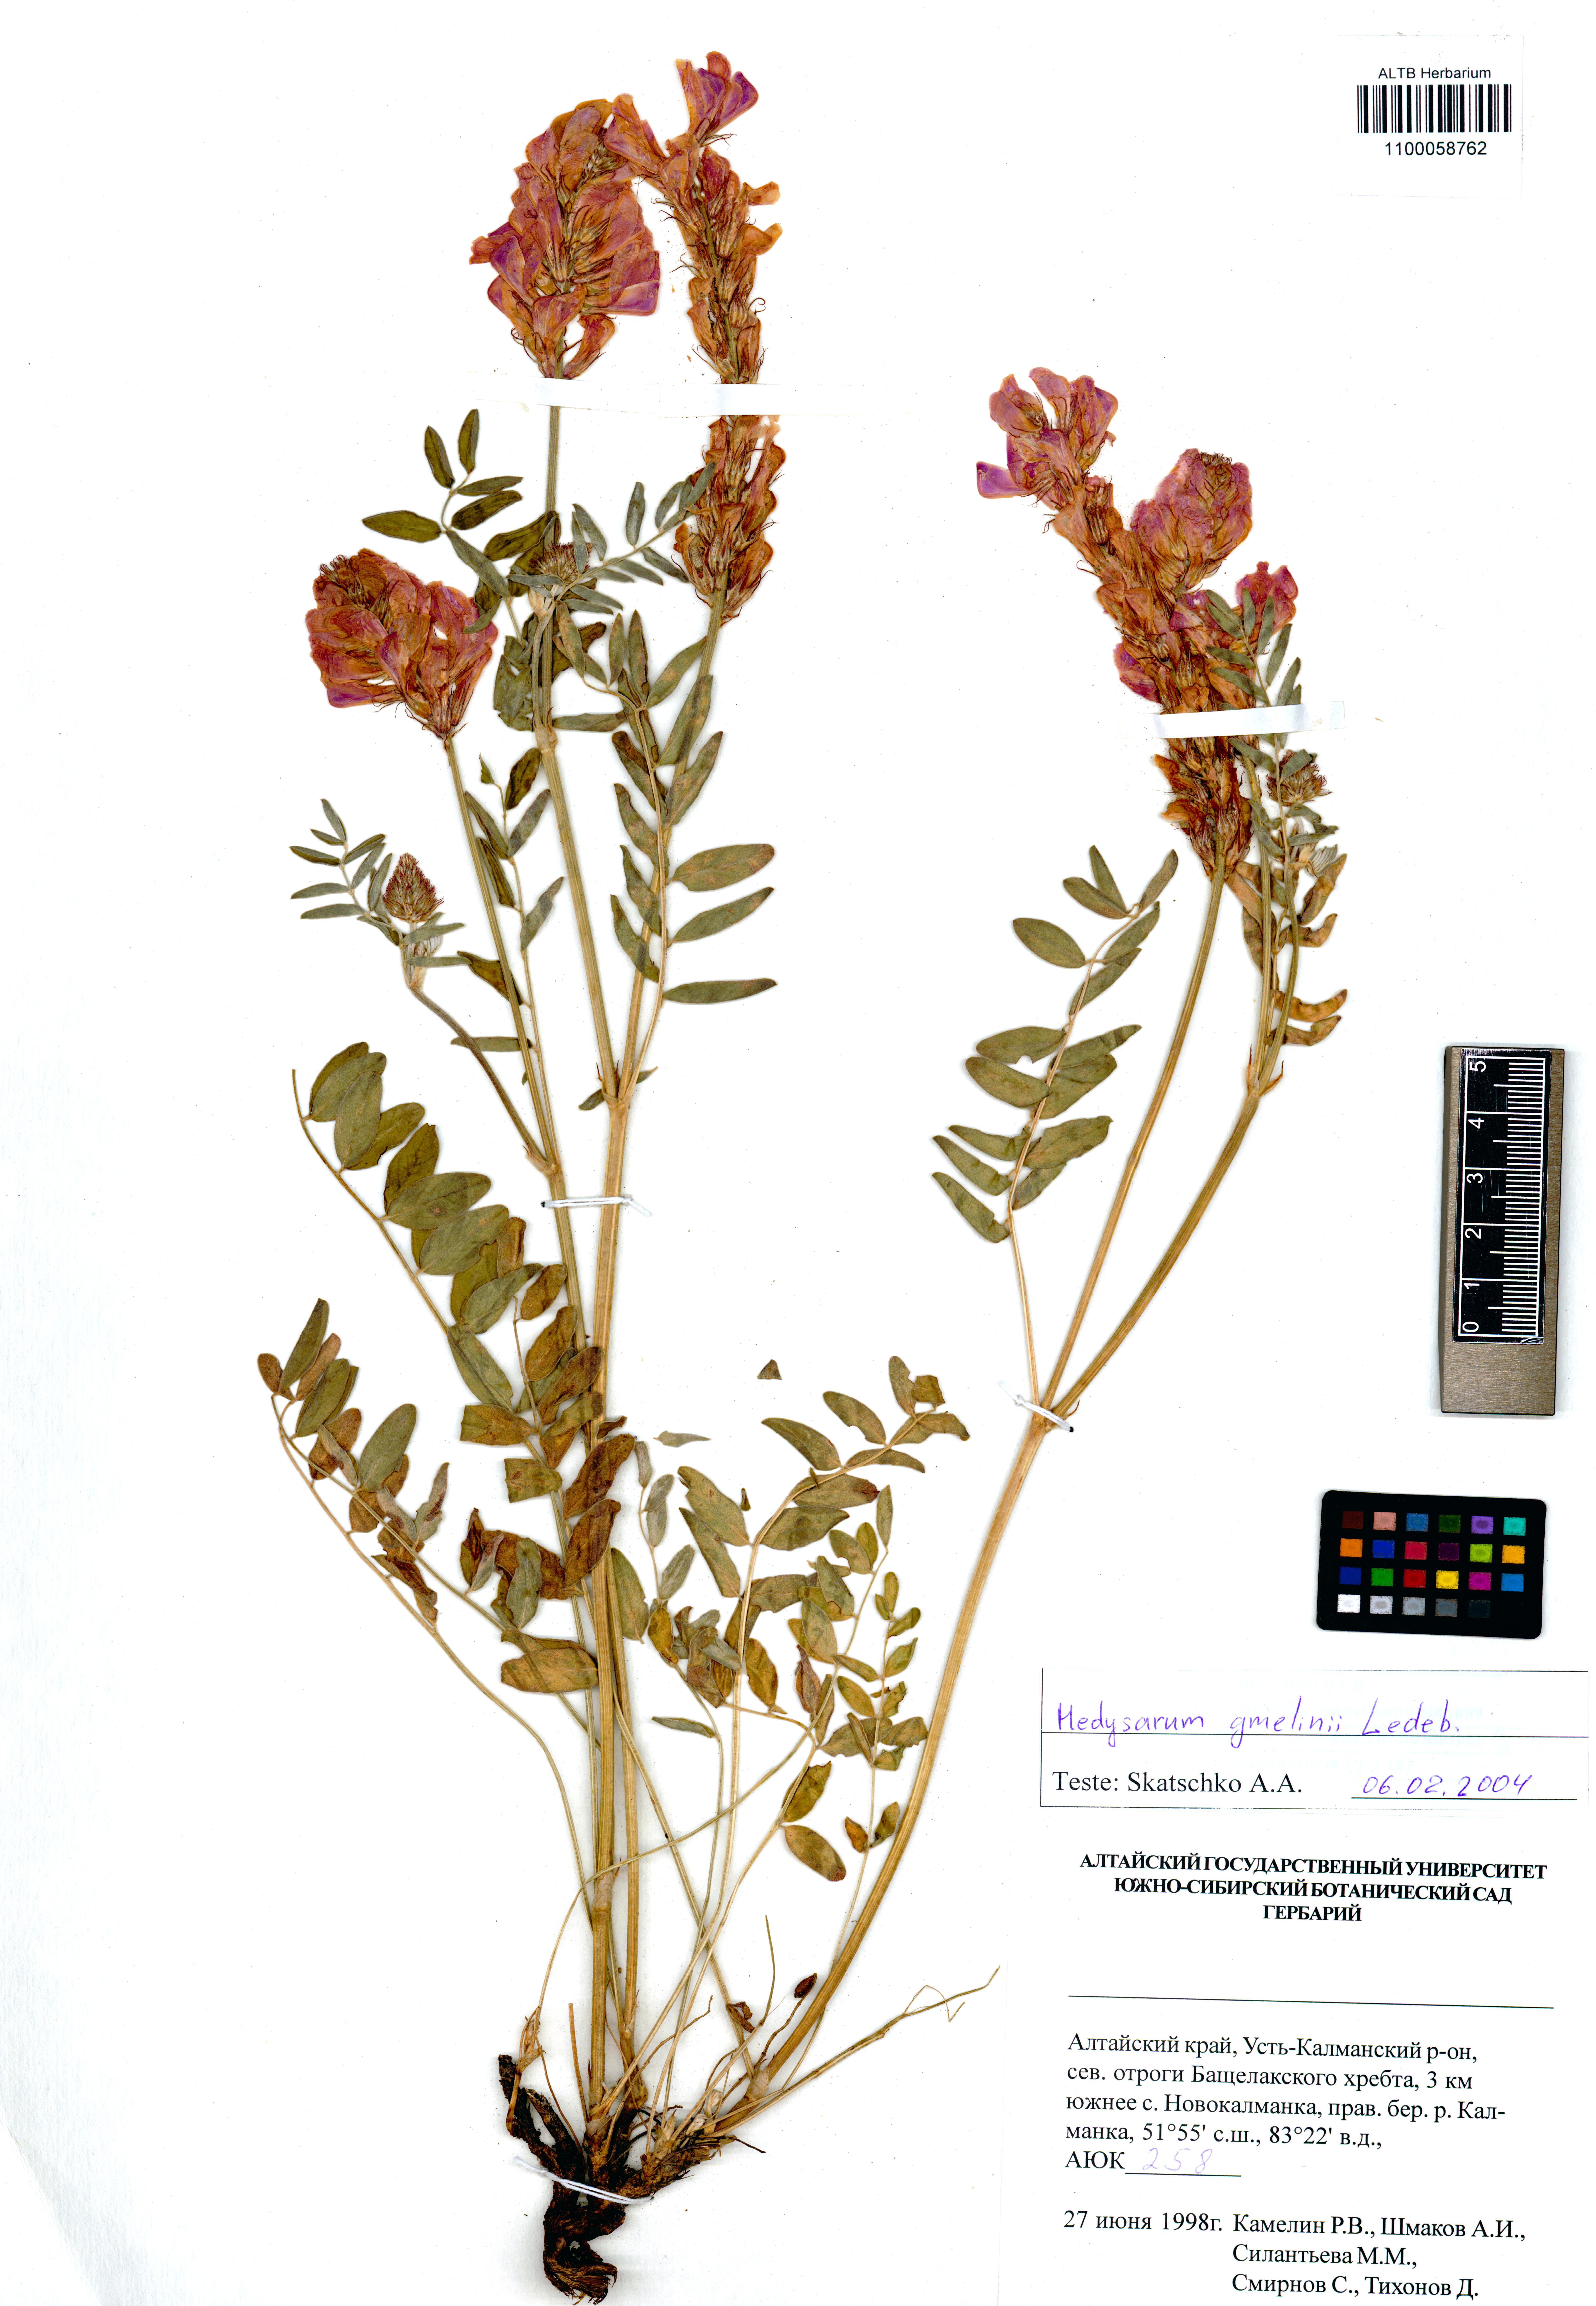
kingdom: Plantae
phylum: Tracheophyta
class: Magnoliopsida
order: Fabales
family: Fabaceae
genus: Hedysarum
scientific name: Hedysarum gmelinii
